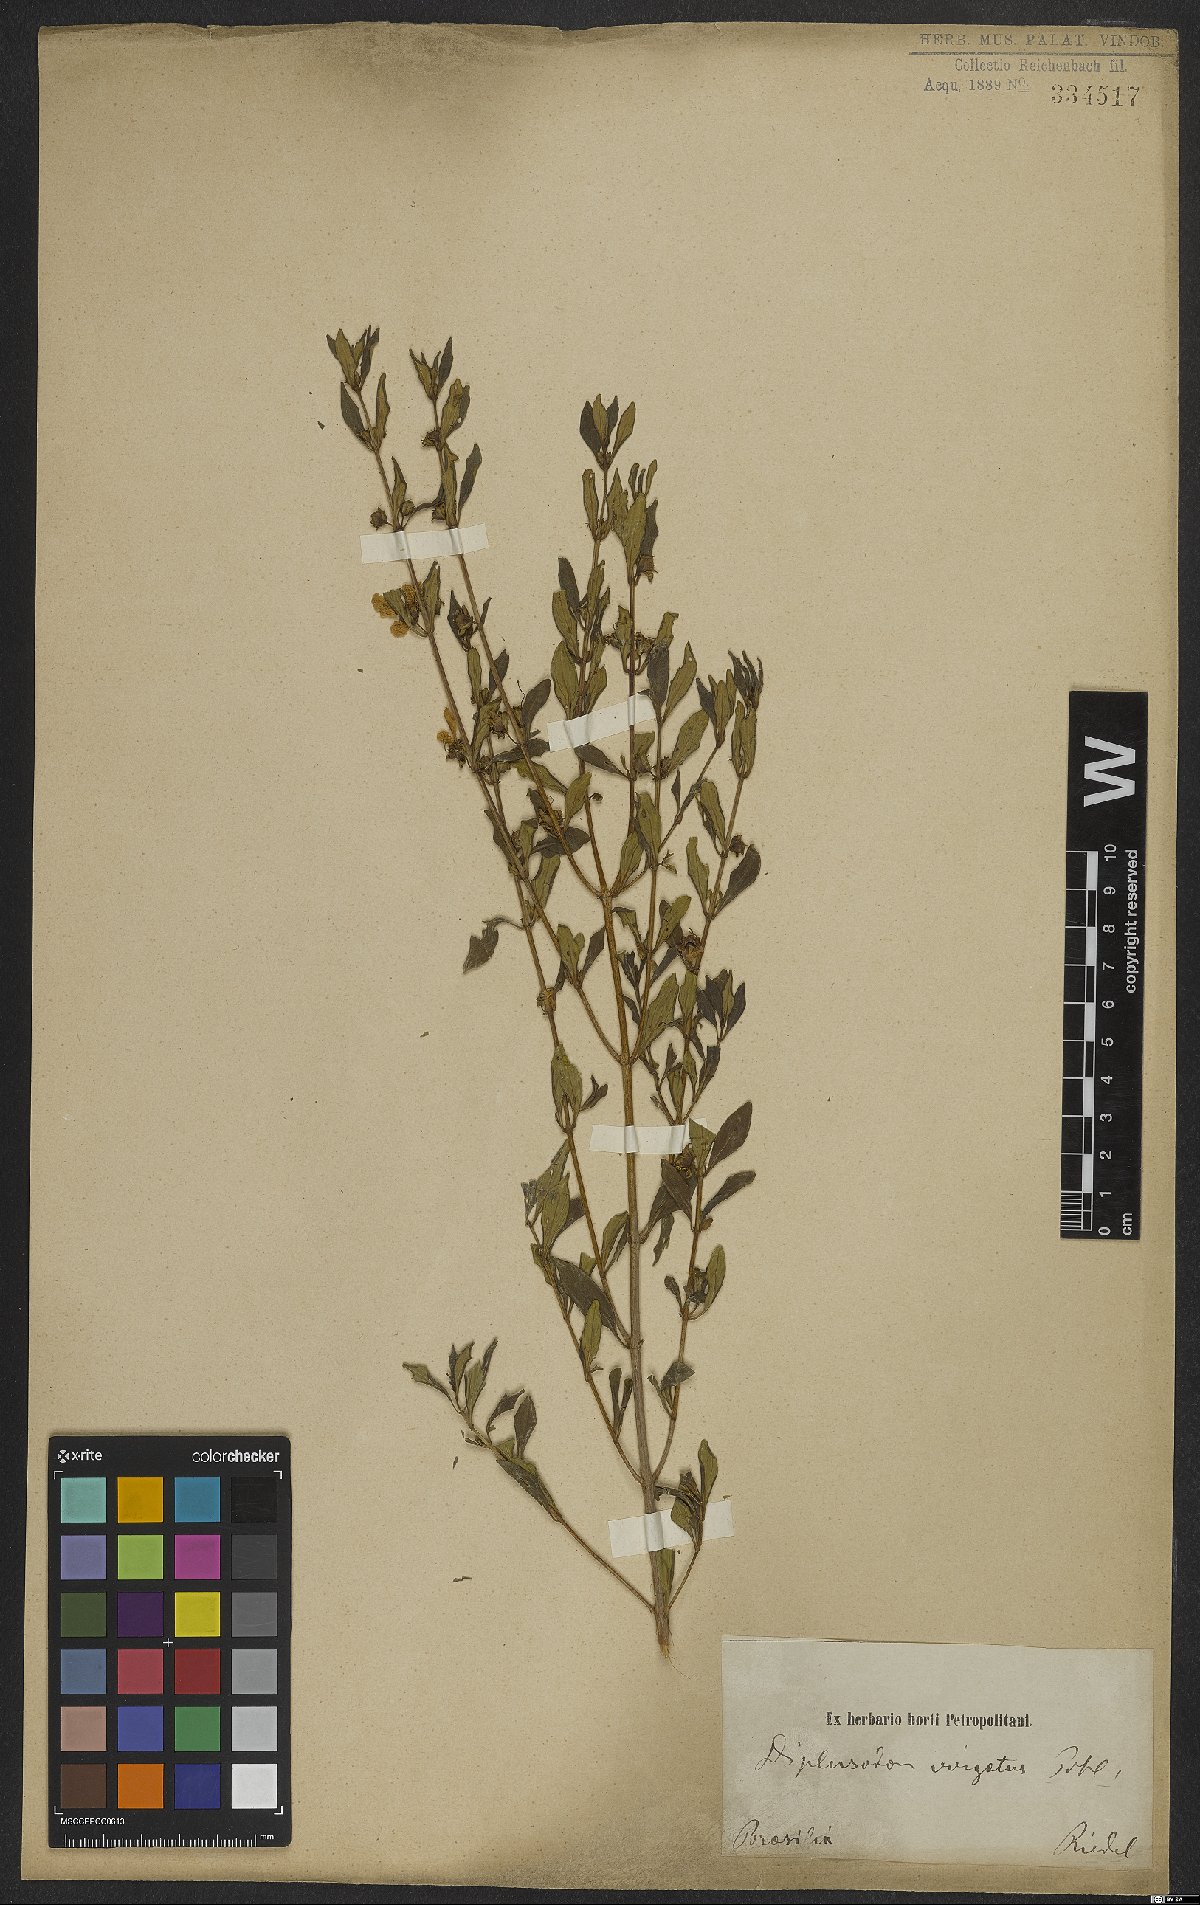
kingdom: Plantae
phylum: Tracheophyta
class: Magnoliopsida
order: Myrtales
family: Lythraceae
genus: Diplusodon
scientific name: Diplusodon virgatus
